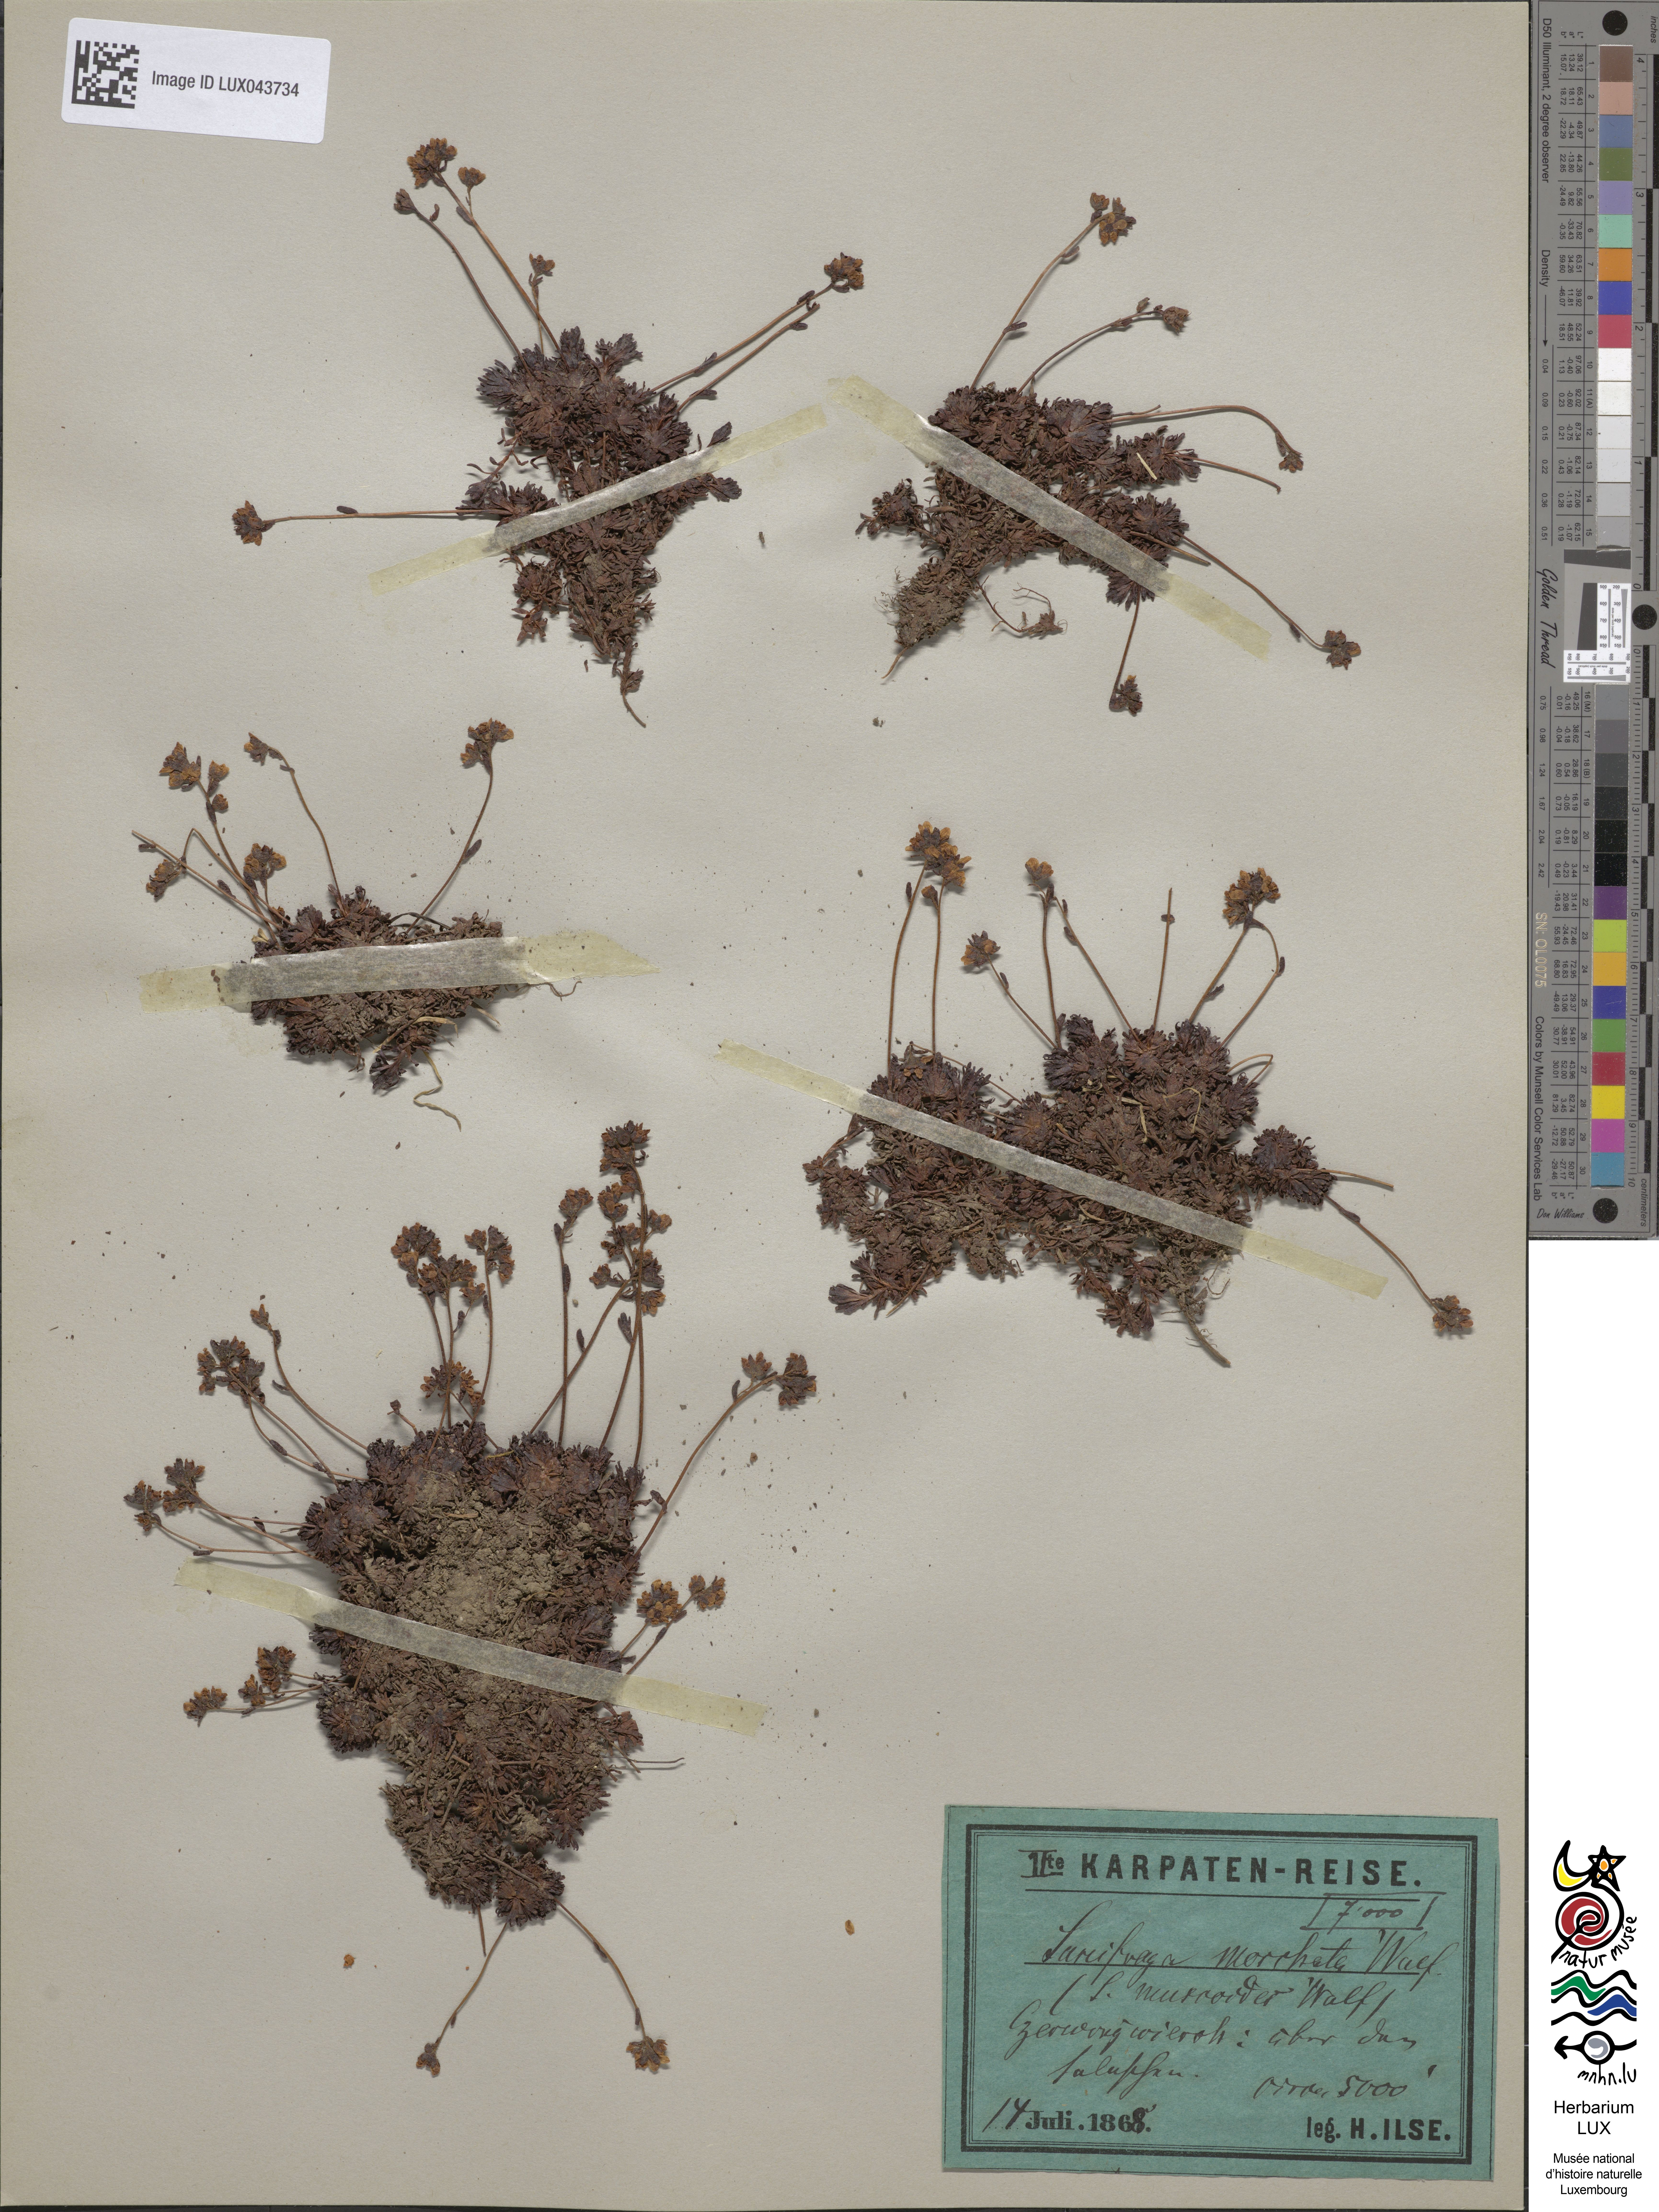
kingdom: Plantae
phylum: Tracheophyta
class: Magnoliopsida
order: Saxifragales
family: Saxifragaceae
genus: Saxifraga
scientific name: Saxifraga moschata
